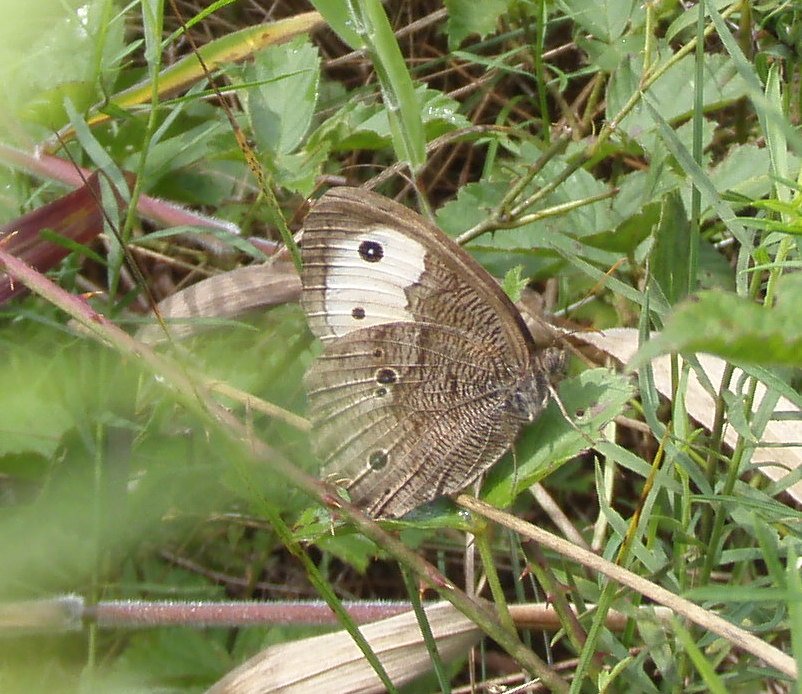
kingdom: Animalia
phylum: Arthropoda
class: Insecta
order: Lepidoptera
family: Nymphalidae
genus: Cercyonis
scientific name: Cercyonis pegala
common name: Common Wood-Nymph
